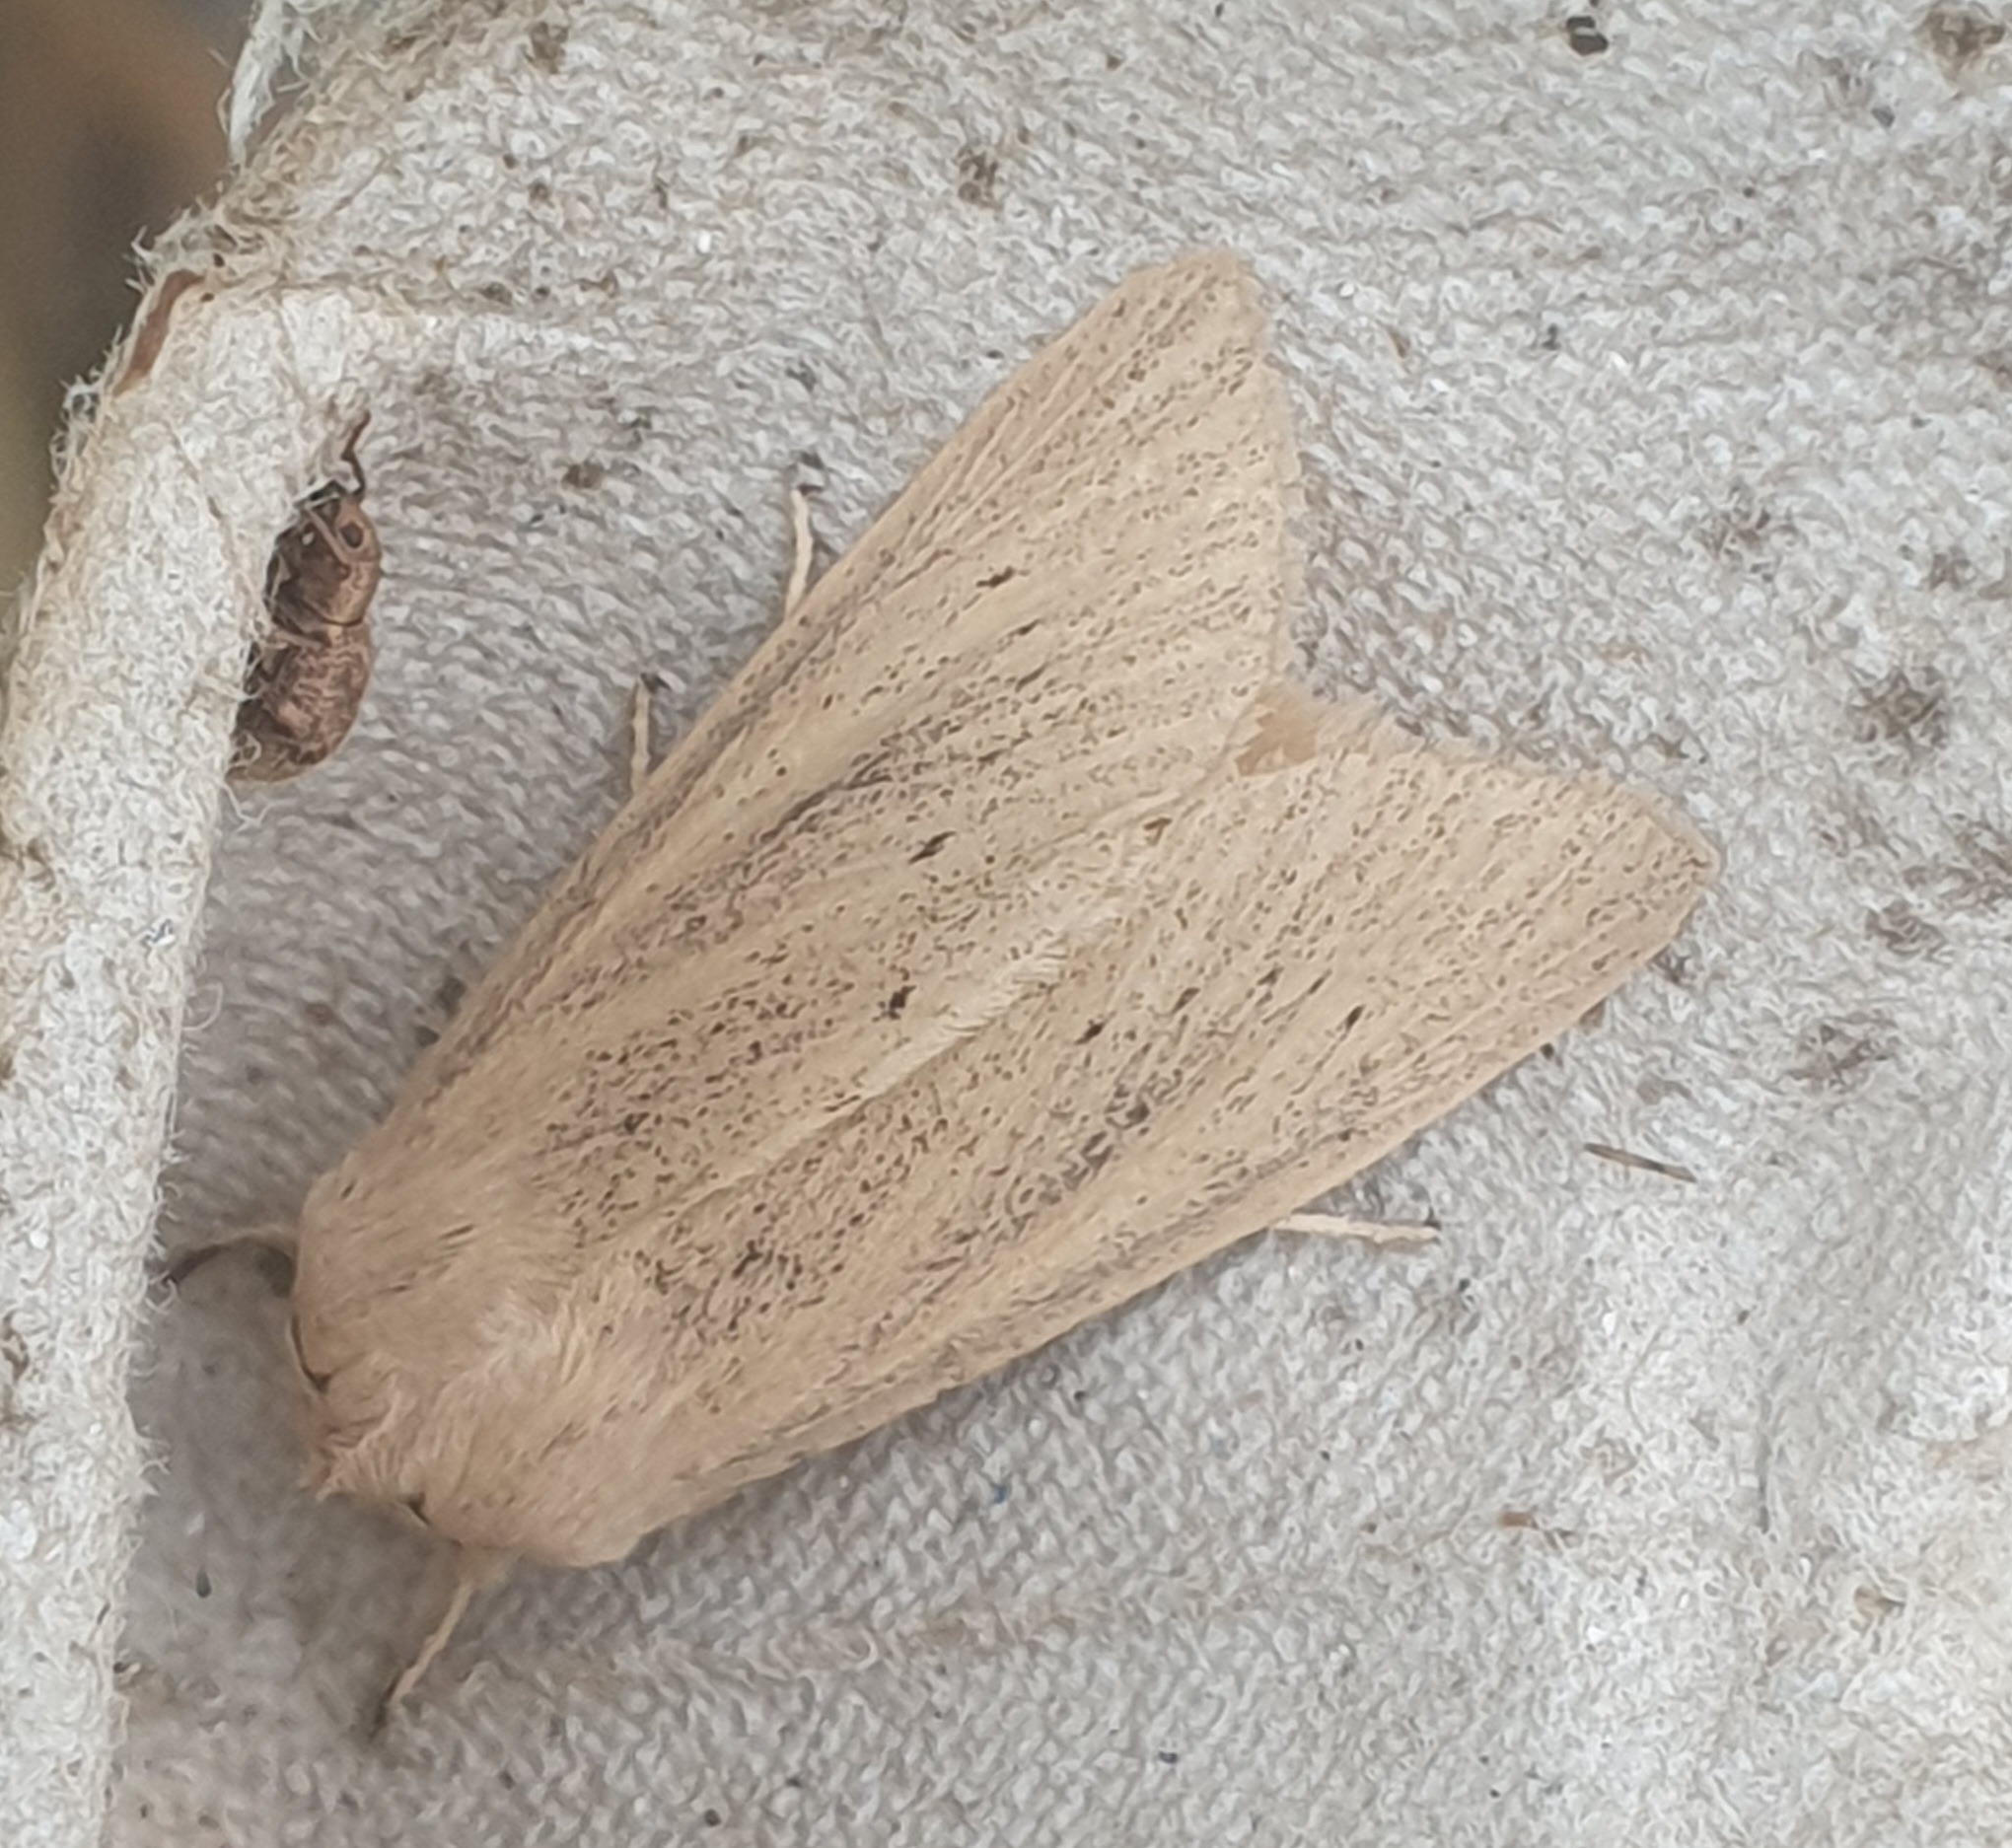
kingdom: Animalia
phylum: Arthropoda
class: Insecta
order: Lepidoptera
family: Noctuidae
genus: Rhizedra
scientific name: Rhizedra lutosa
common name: Stor sivugle
